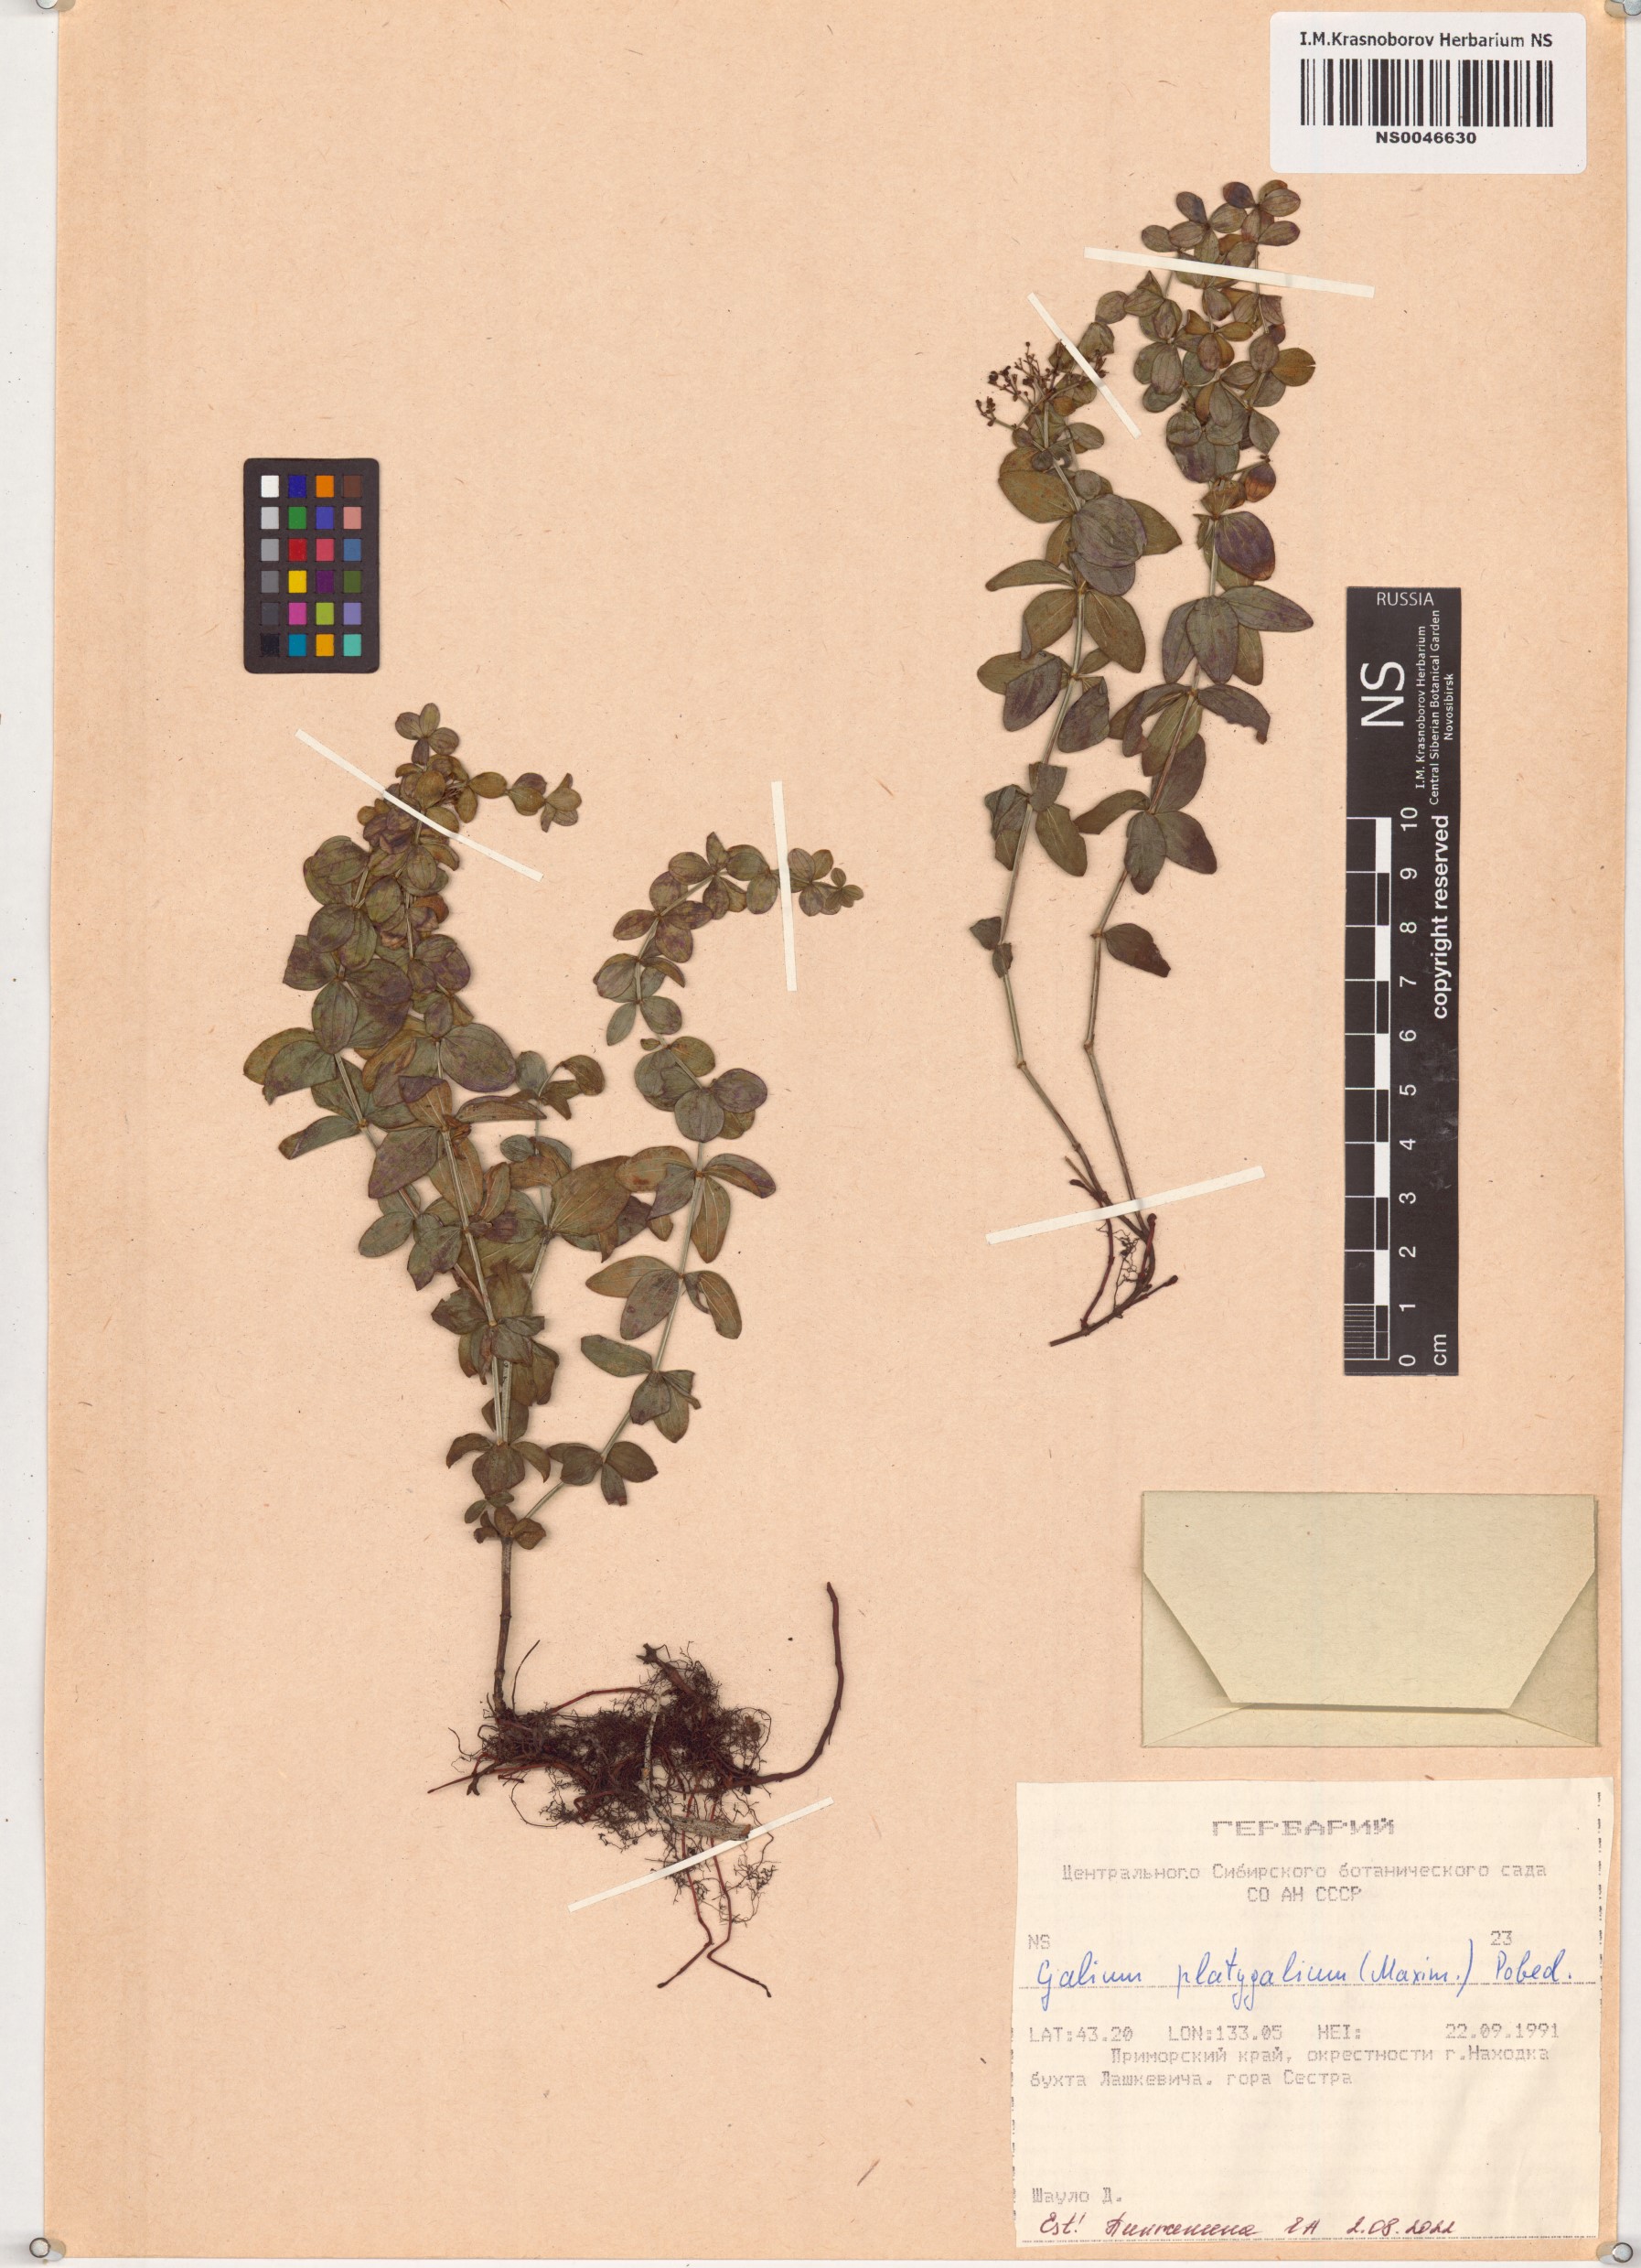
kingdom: Plantae
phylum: Tracheophyta
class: Magnoliopsida
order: Gentianales
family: Rubiaceae
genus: Galium
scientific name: Galium platygalium
